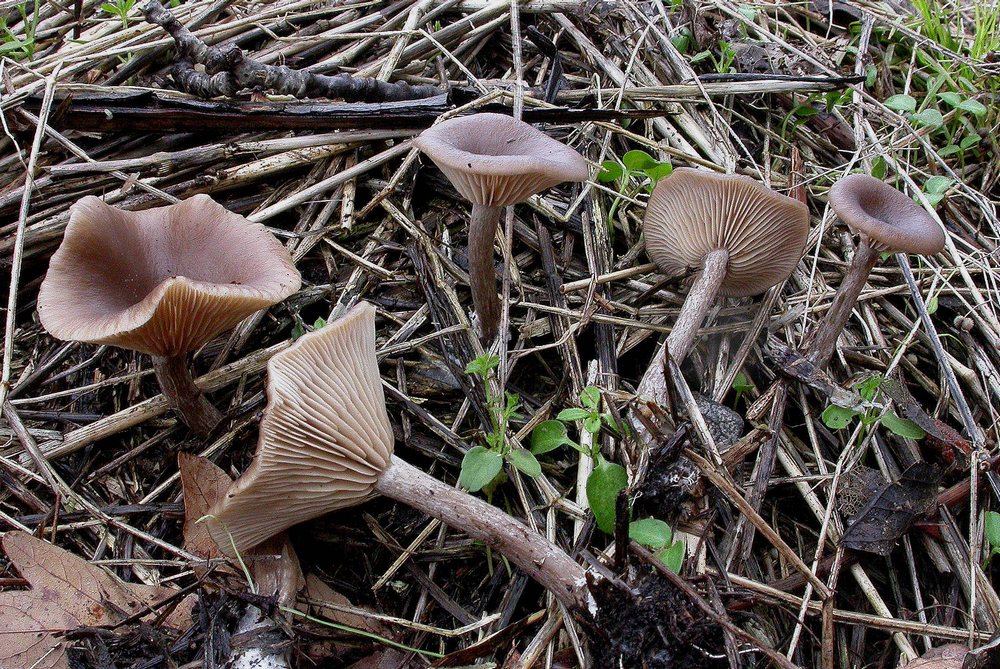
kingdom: Fungi
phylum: Basidiomycota
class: Agaricomycetes
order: Agaricales
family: Pseudoclitocybaceae
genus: Pseudoclitocybe
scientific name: Pseudoclitocybe cyathiformis
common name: almindelig bægertragthat
